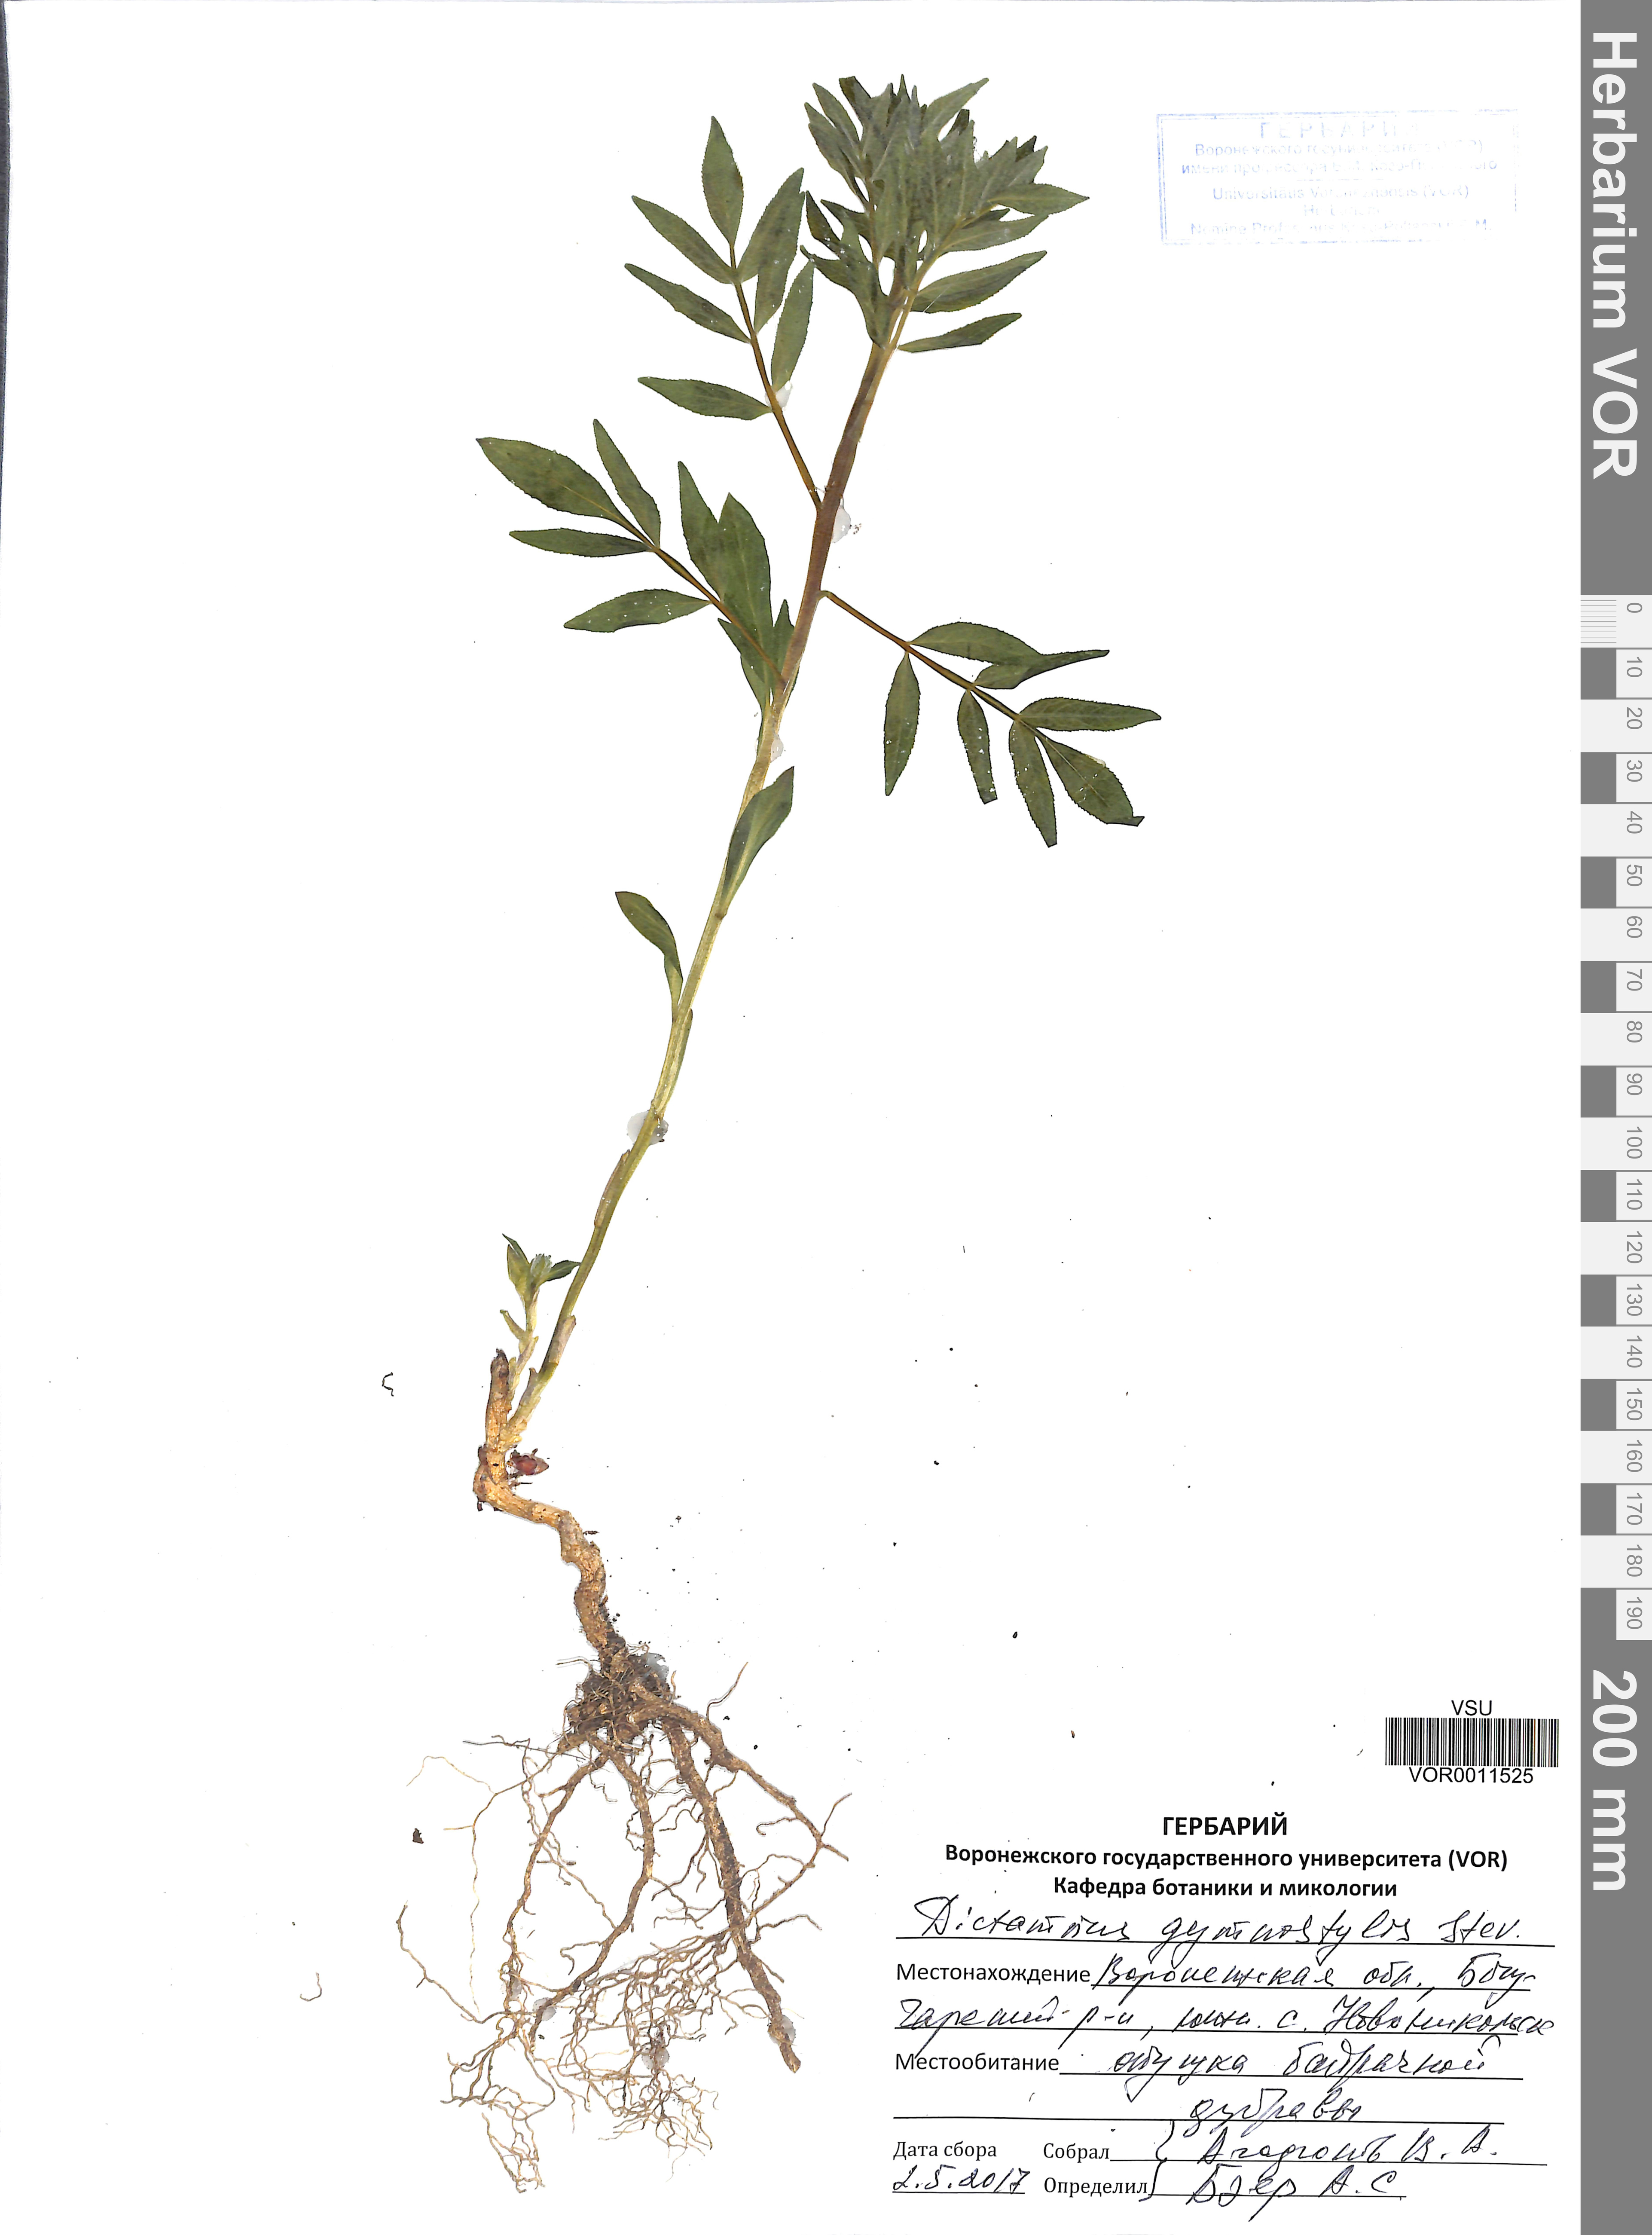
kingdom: Plantae
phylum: Tracheophyta
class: Magnoliopsida
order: Sapindales
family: Rutaceae
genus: Dictamnus
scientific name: Dictamnus albus
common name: Gasplant
